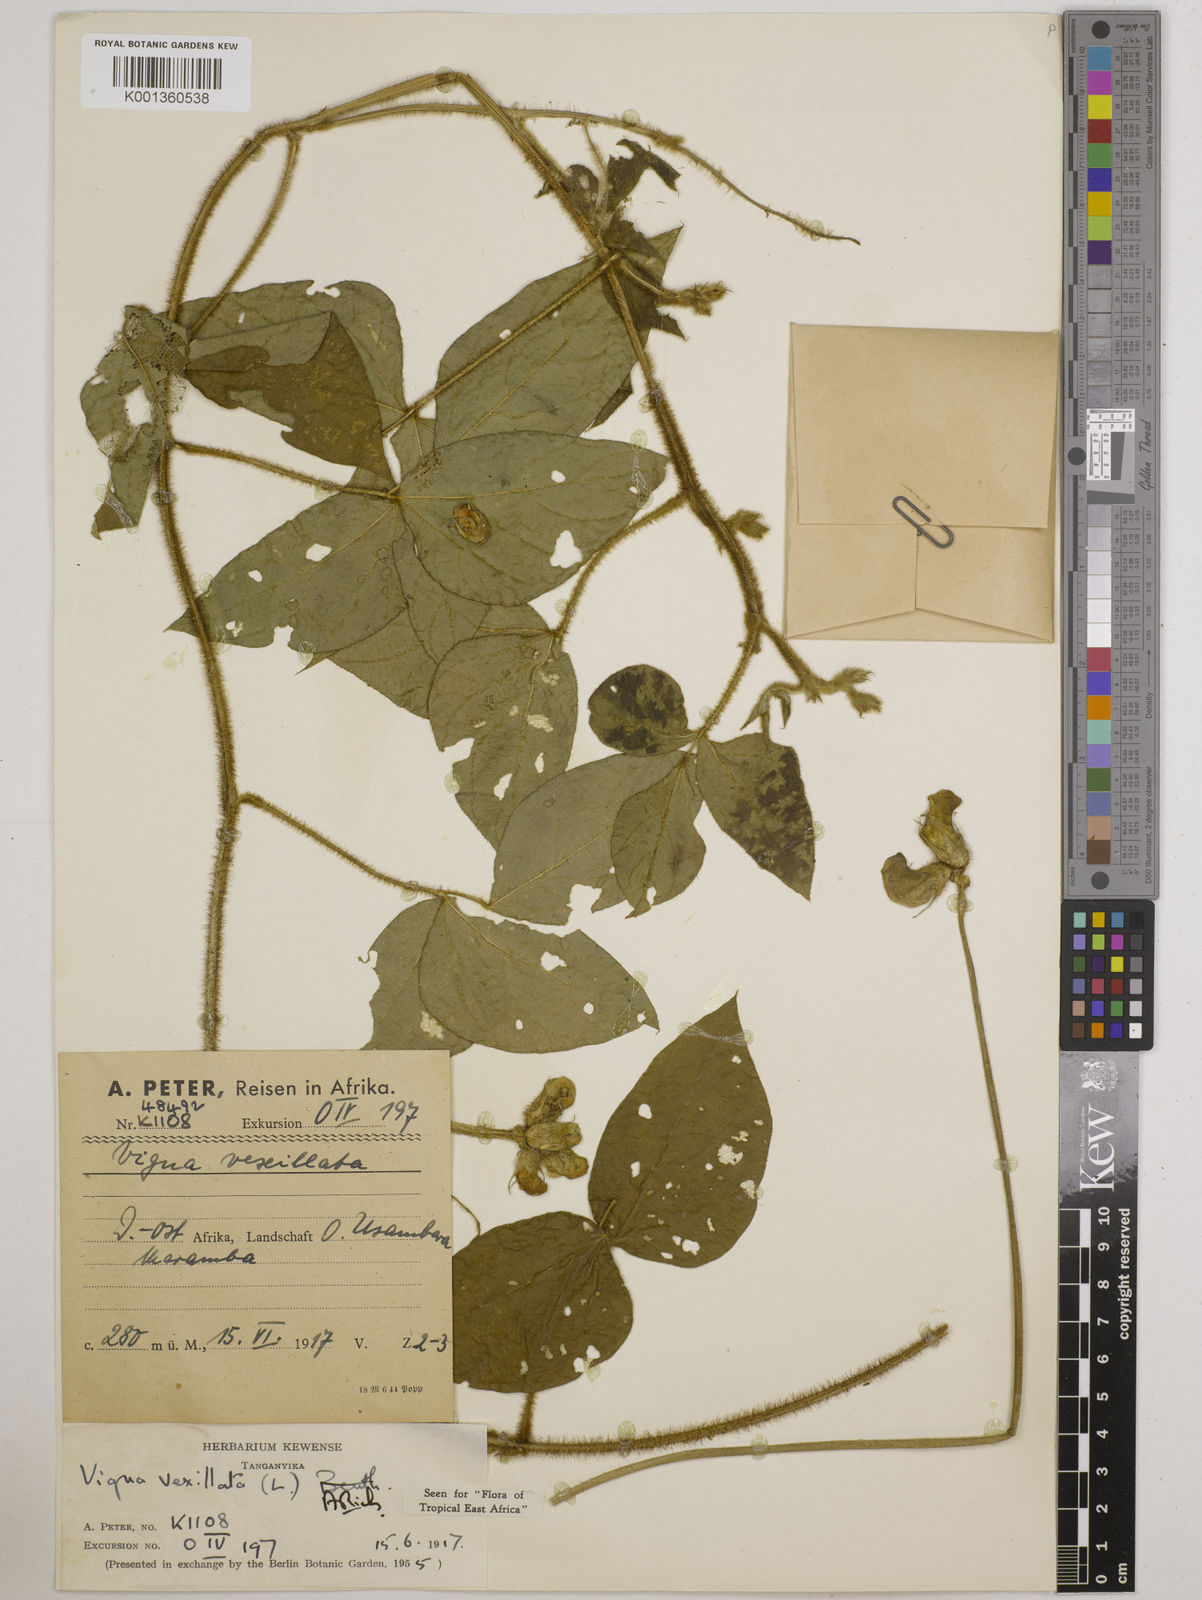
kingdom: Plantae
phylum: Tracheophyta
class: Magnoliopsida
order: Fabales
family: Fabaceae
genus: Vigna
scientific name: Vigna vexillata
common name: Zombi pea
